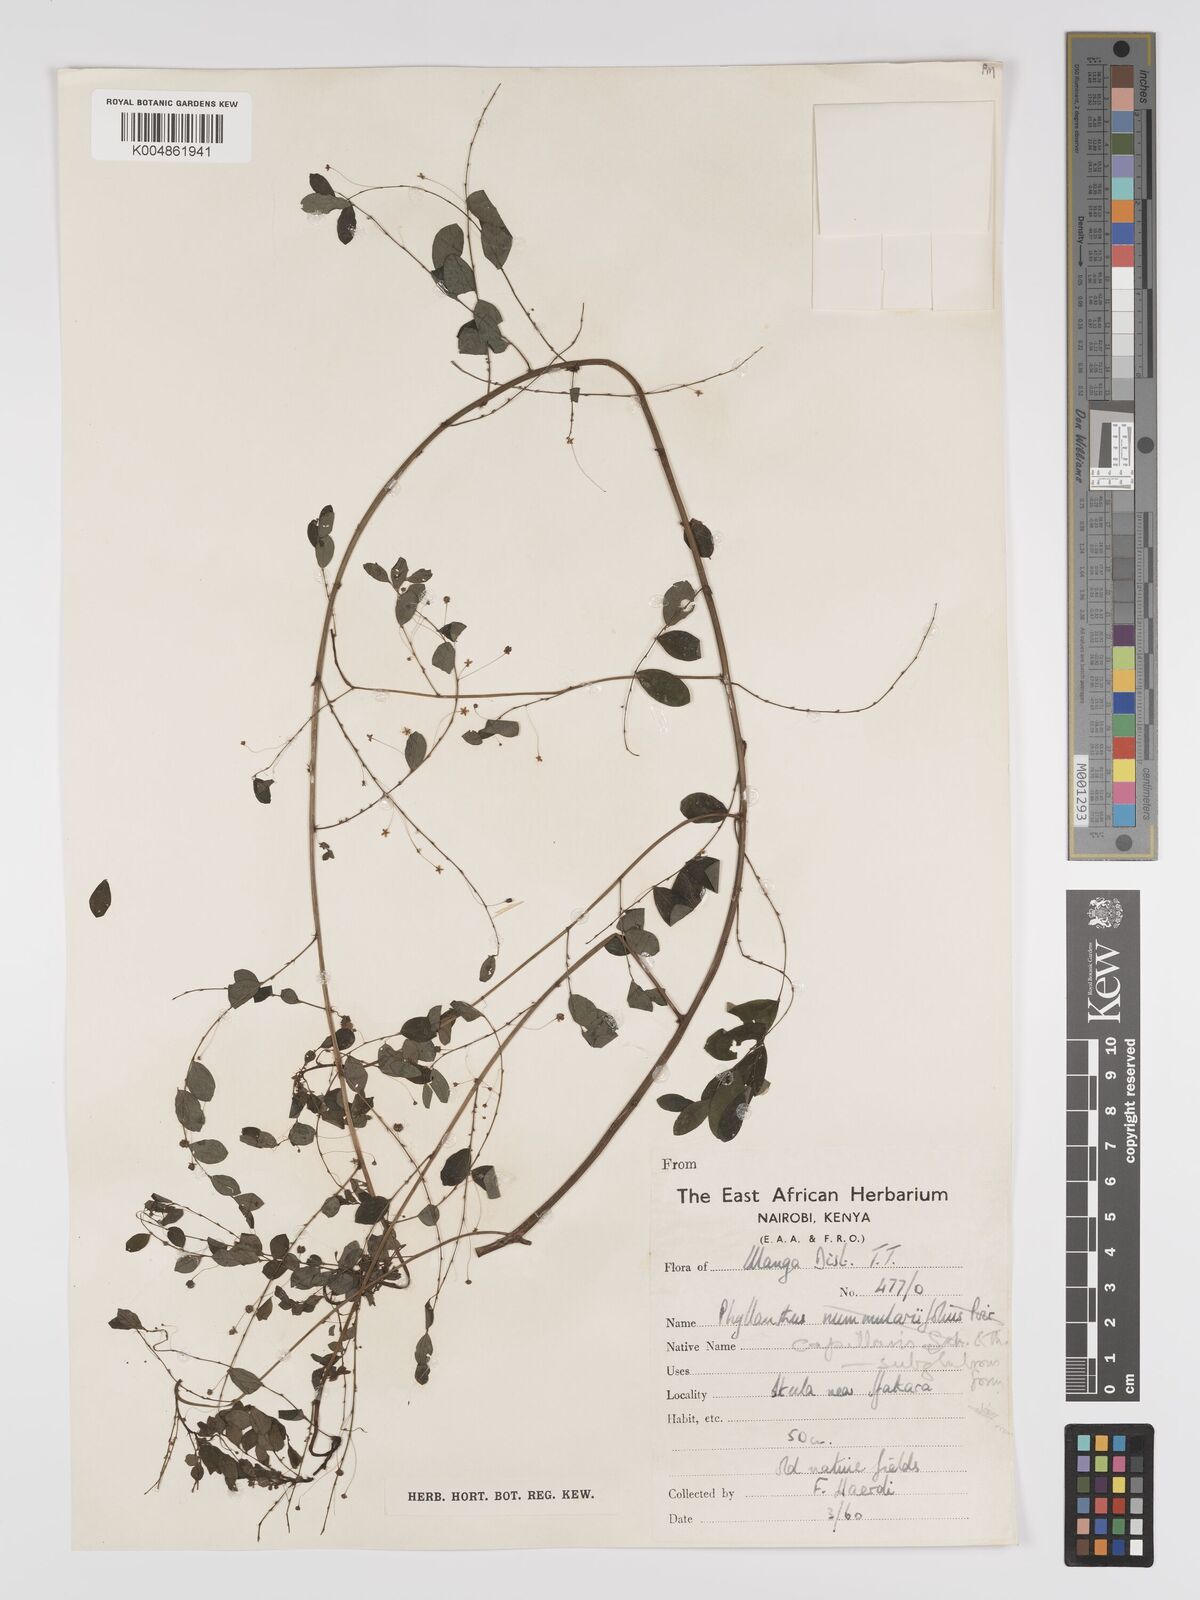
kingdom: Plantae
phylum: Tracheophyta
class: Magnoliopsida
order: Malpighiales
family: Phyllanthaceae
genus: Phyllanthus
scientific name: Phyllanthus nummulariifolius
